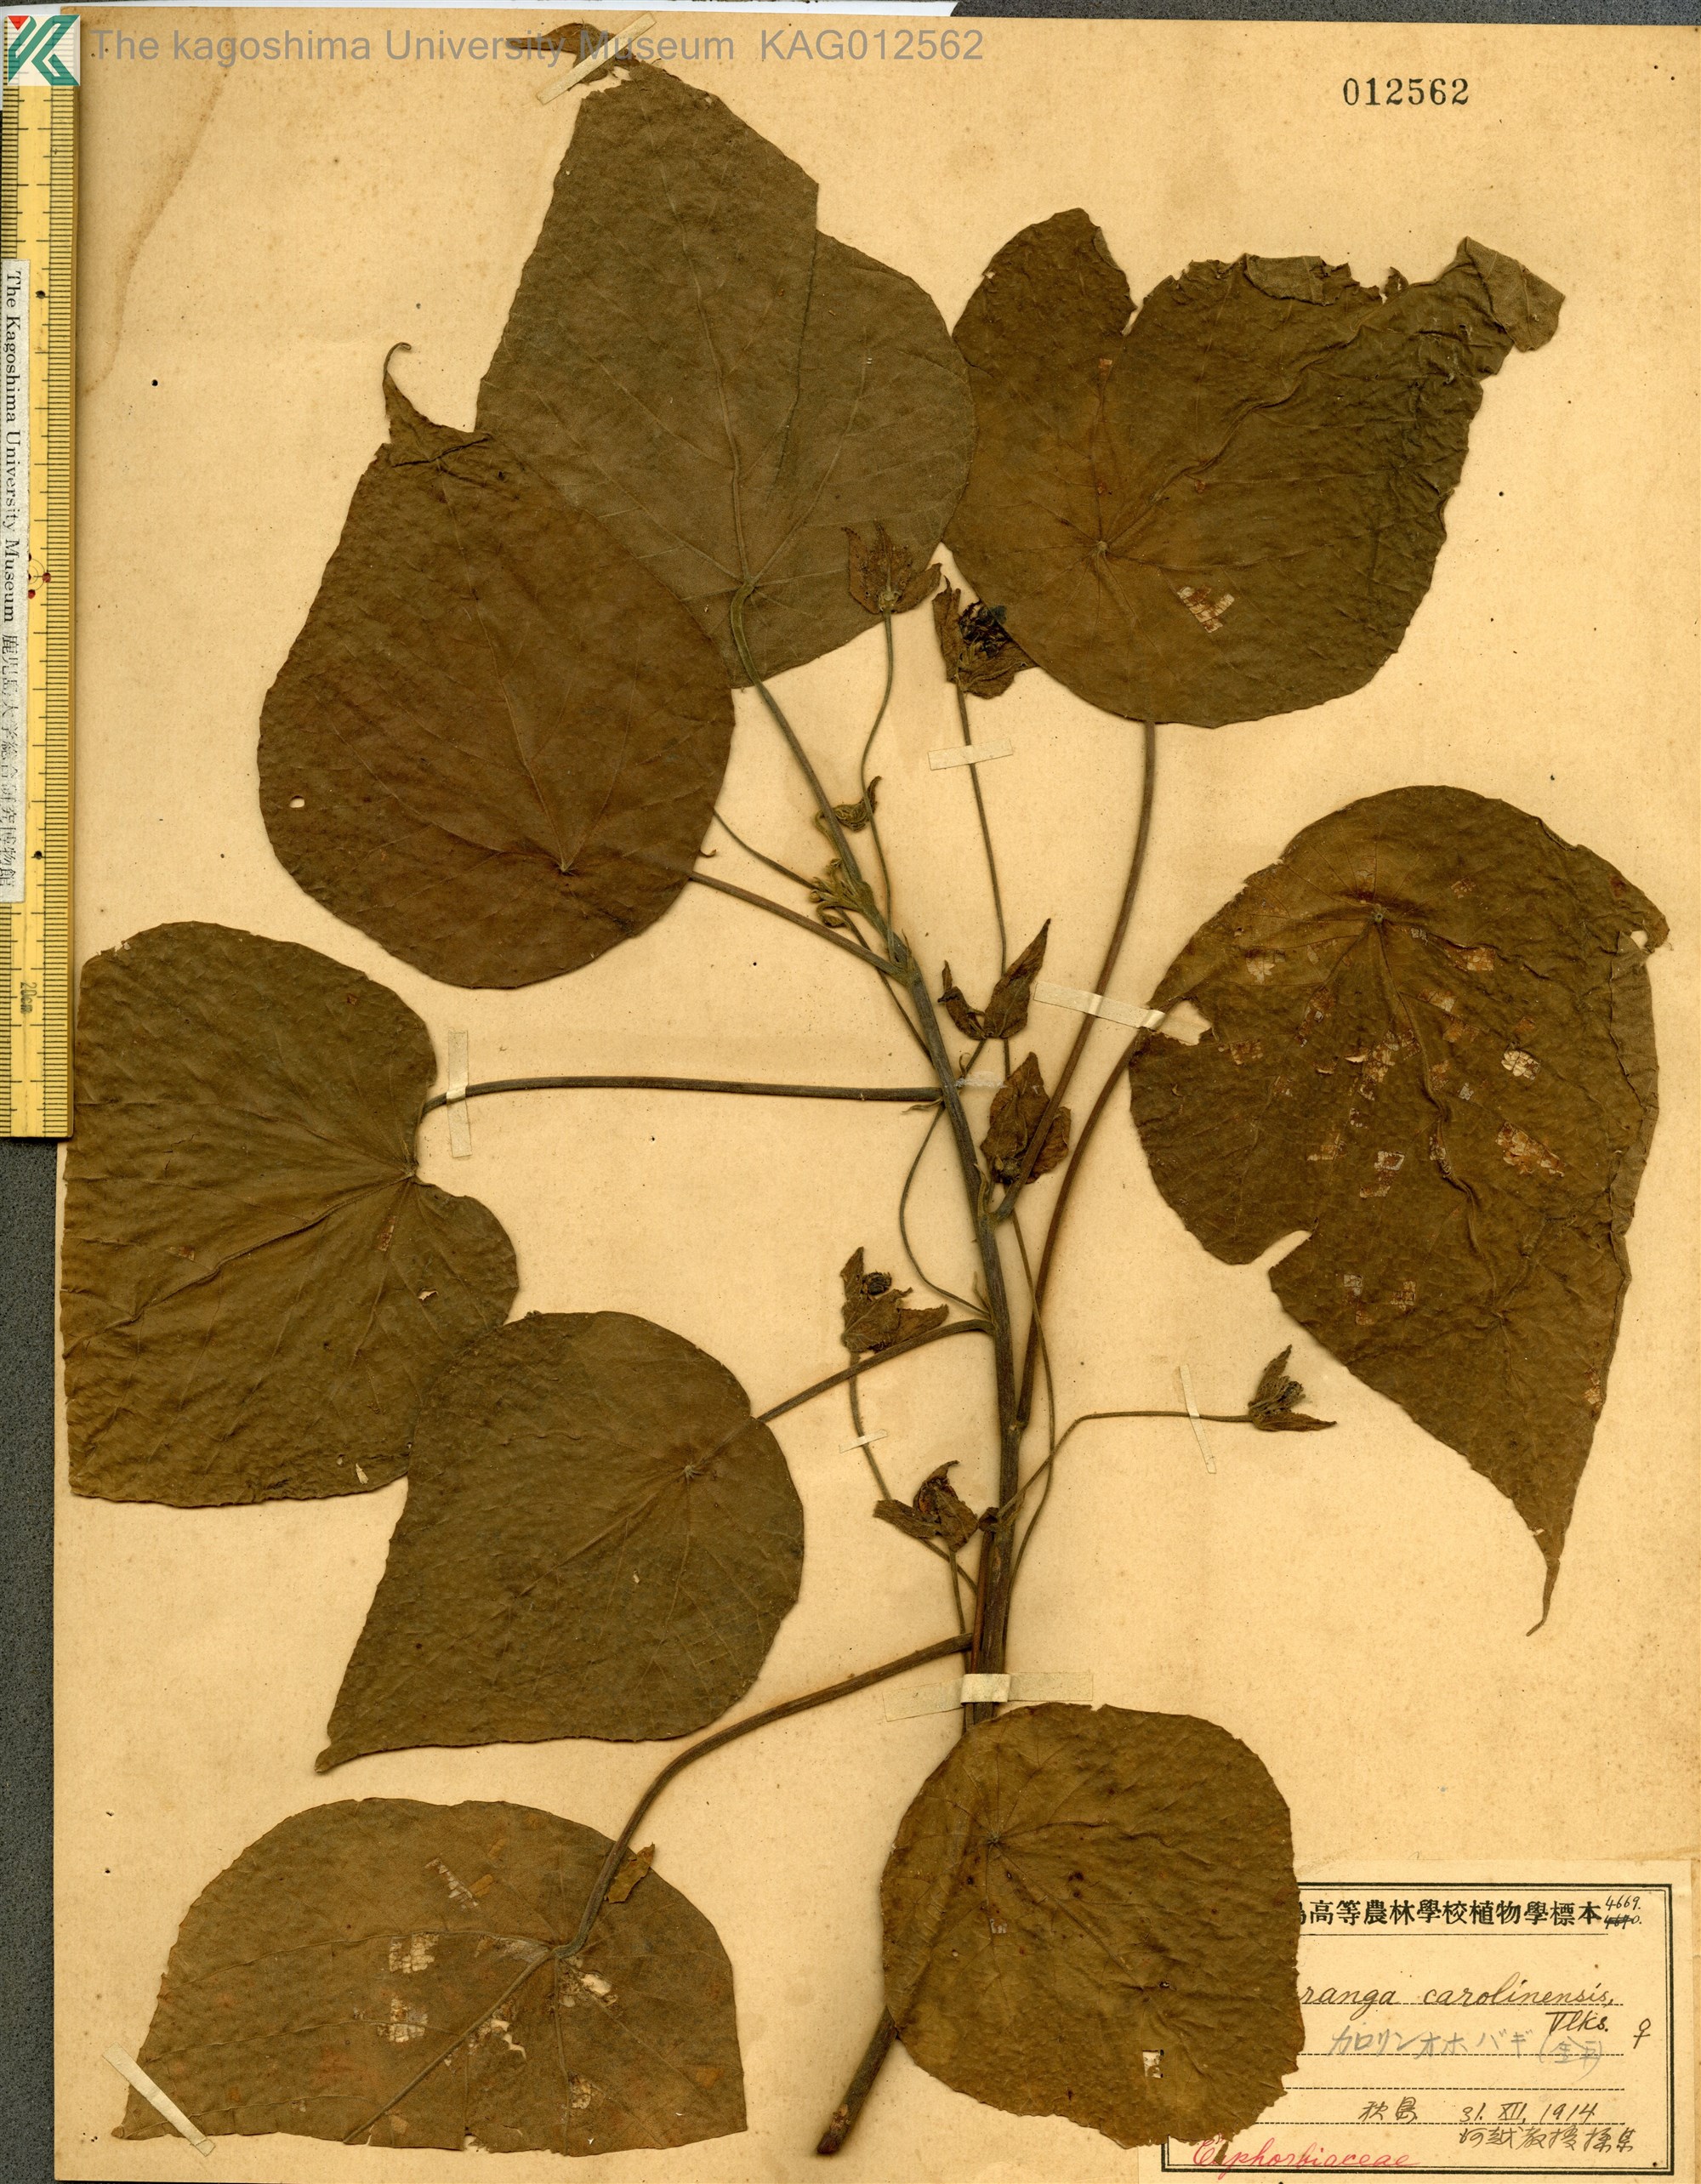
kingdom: Plantae
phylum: Tracheophyta
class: Magnoliopsida
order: Malpighiales
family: Euphorbiaceae
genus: Macaranga
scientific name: Macaranga carolinensis
